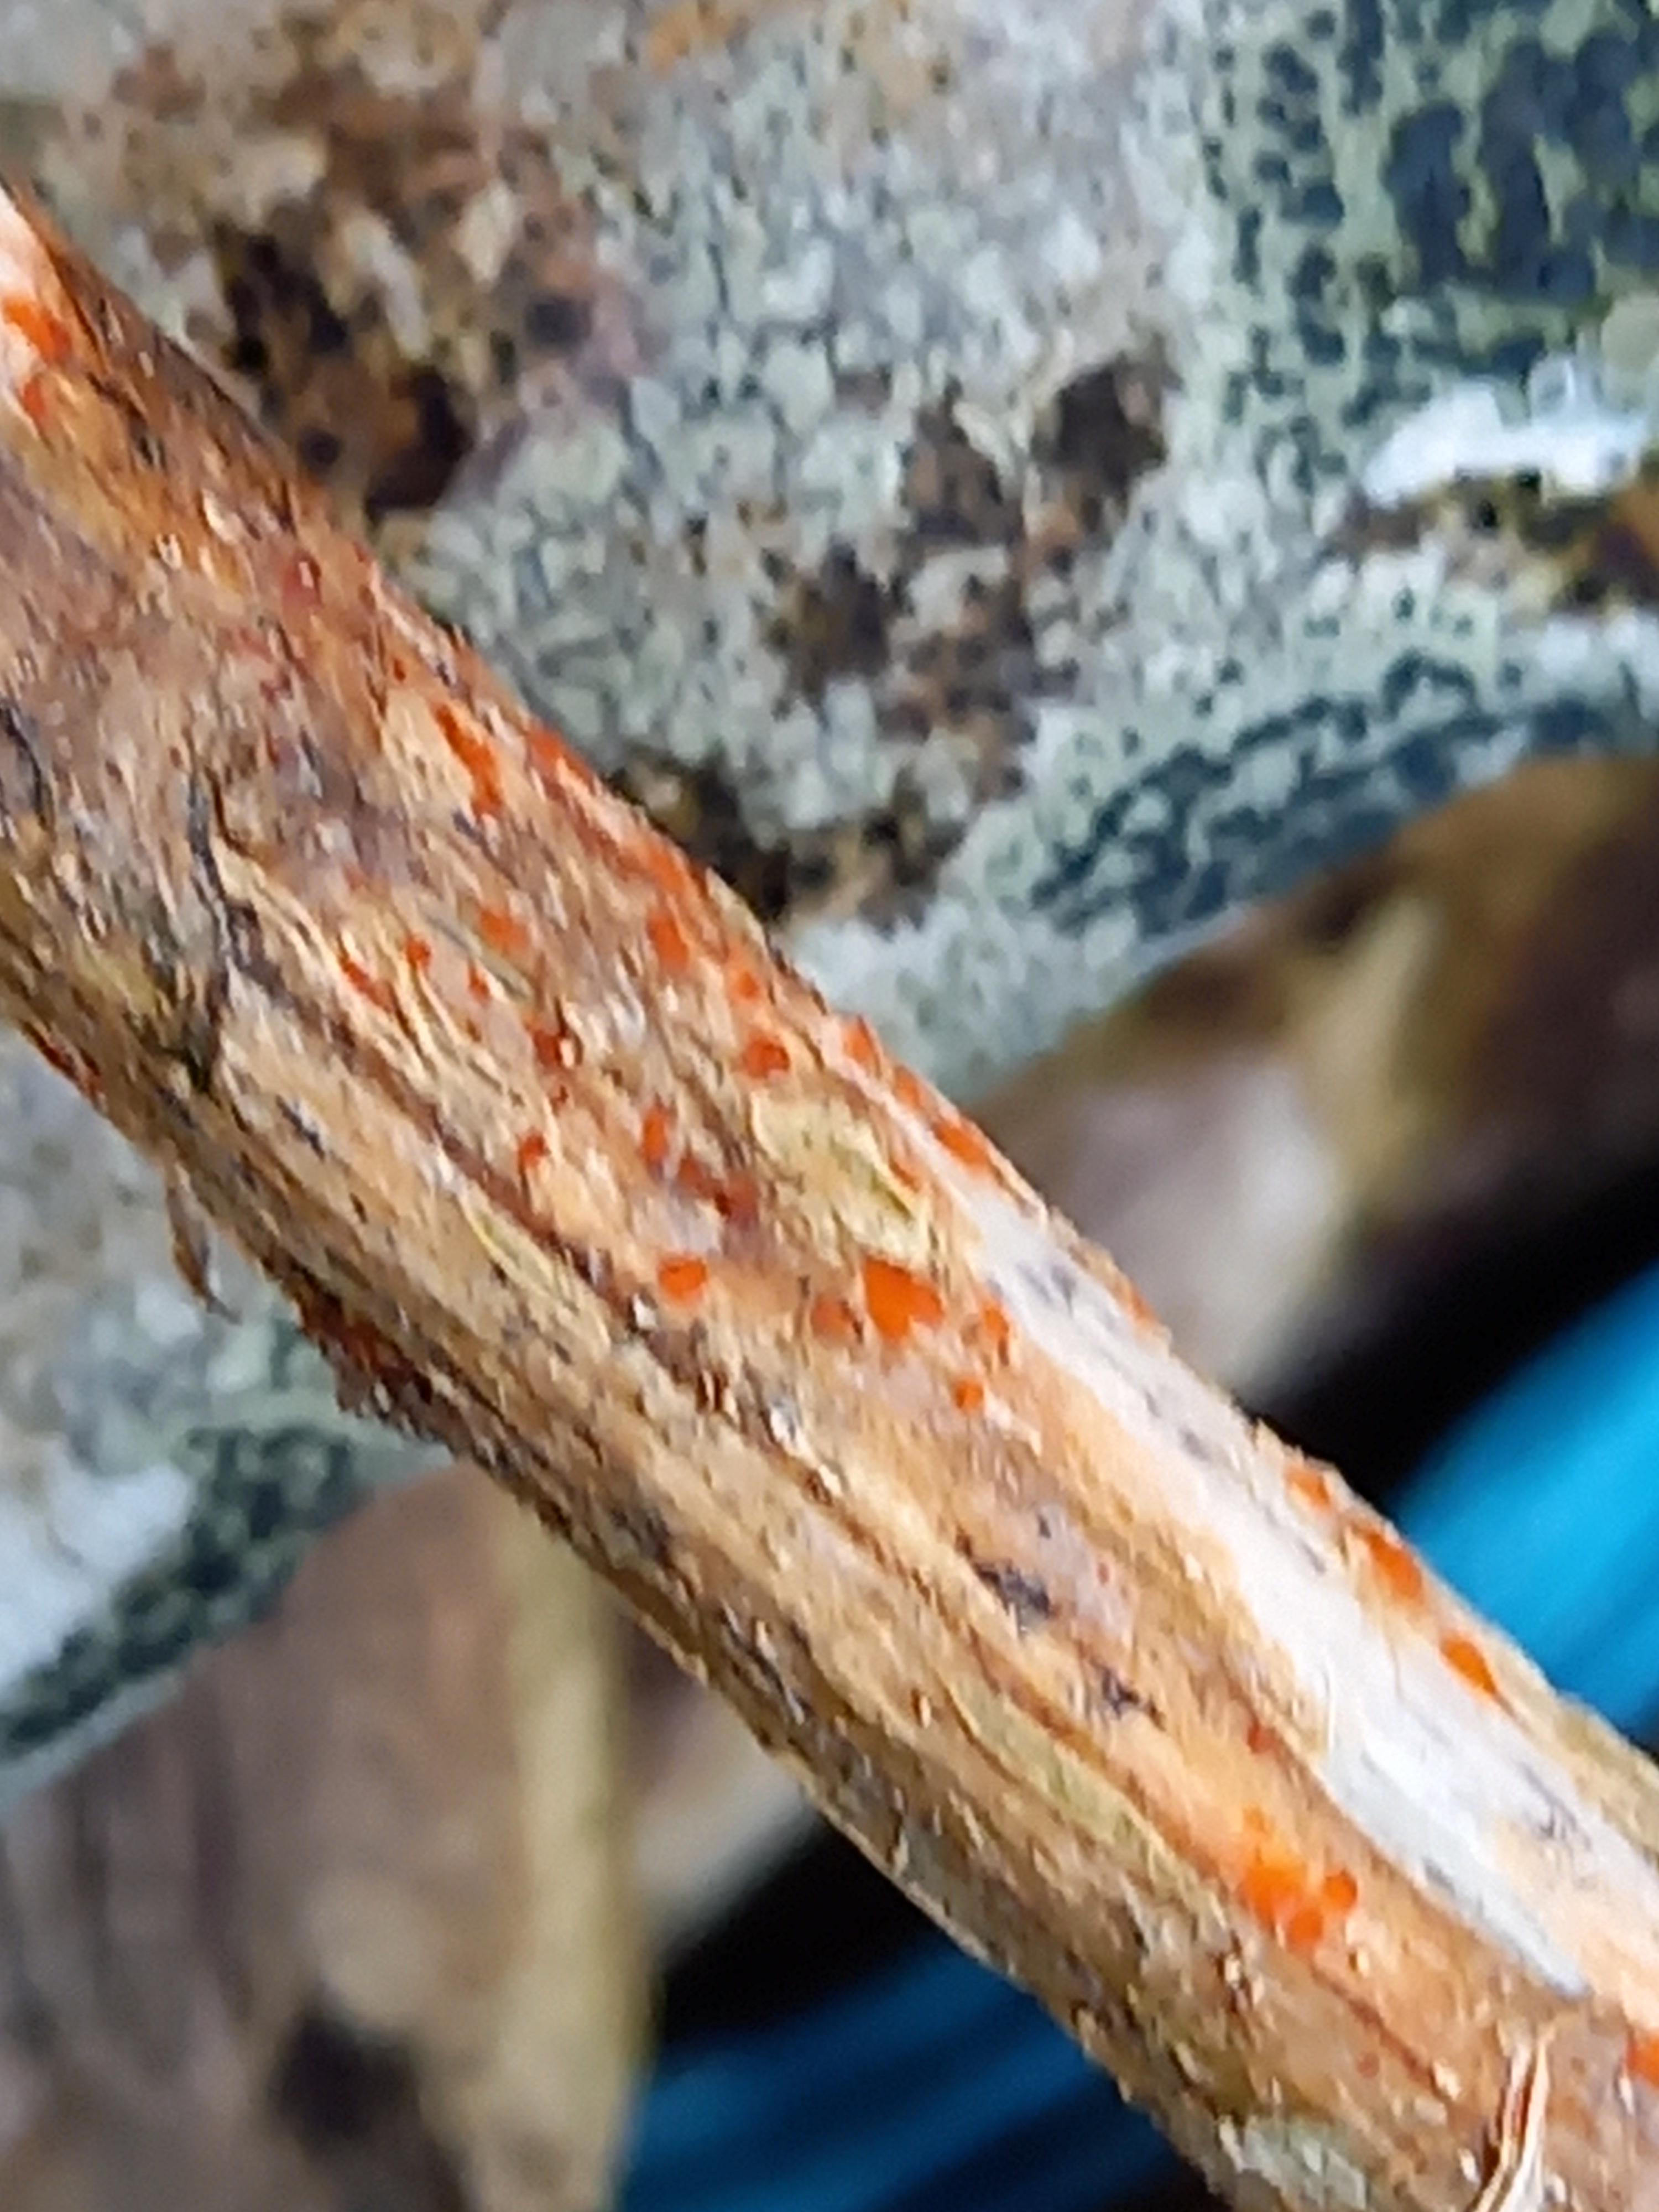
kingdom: Fungi
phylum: Ascomycota
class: Leotiomycetes
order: Helotiales
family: Calloriaceae
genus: Calloria
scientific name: Calloria urticae
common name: nælde-orangeskive
